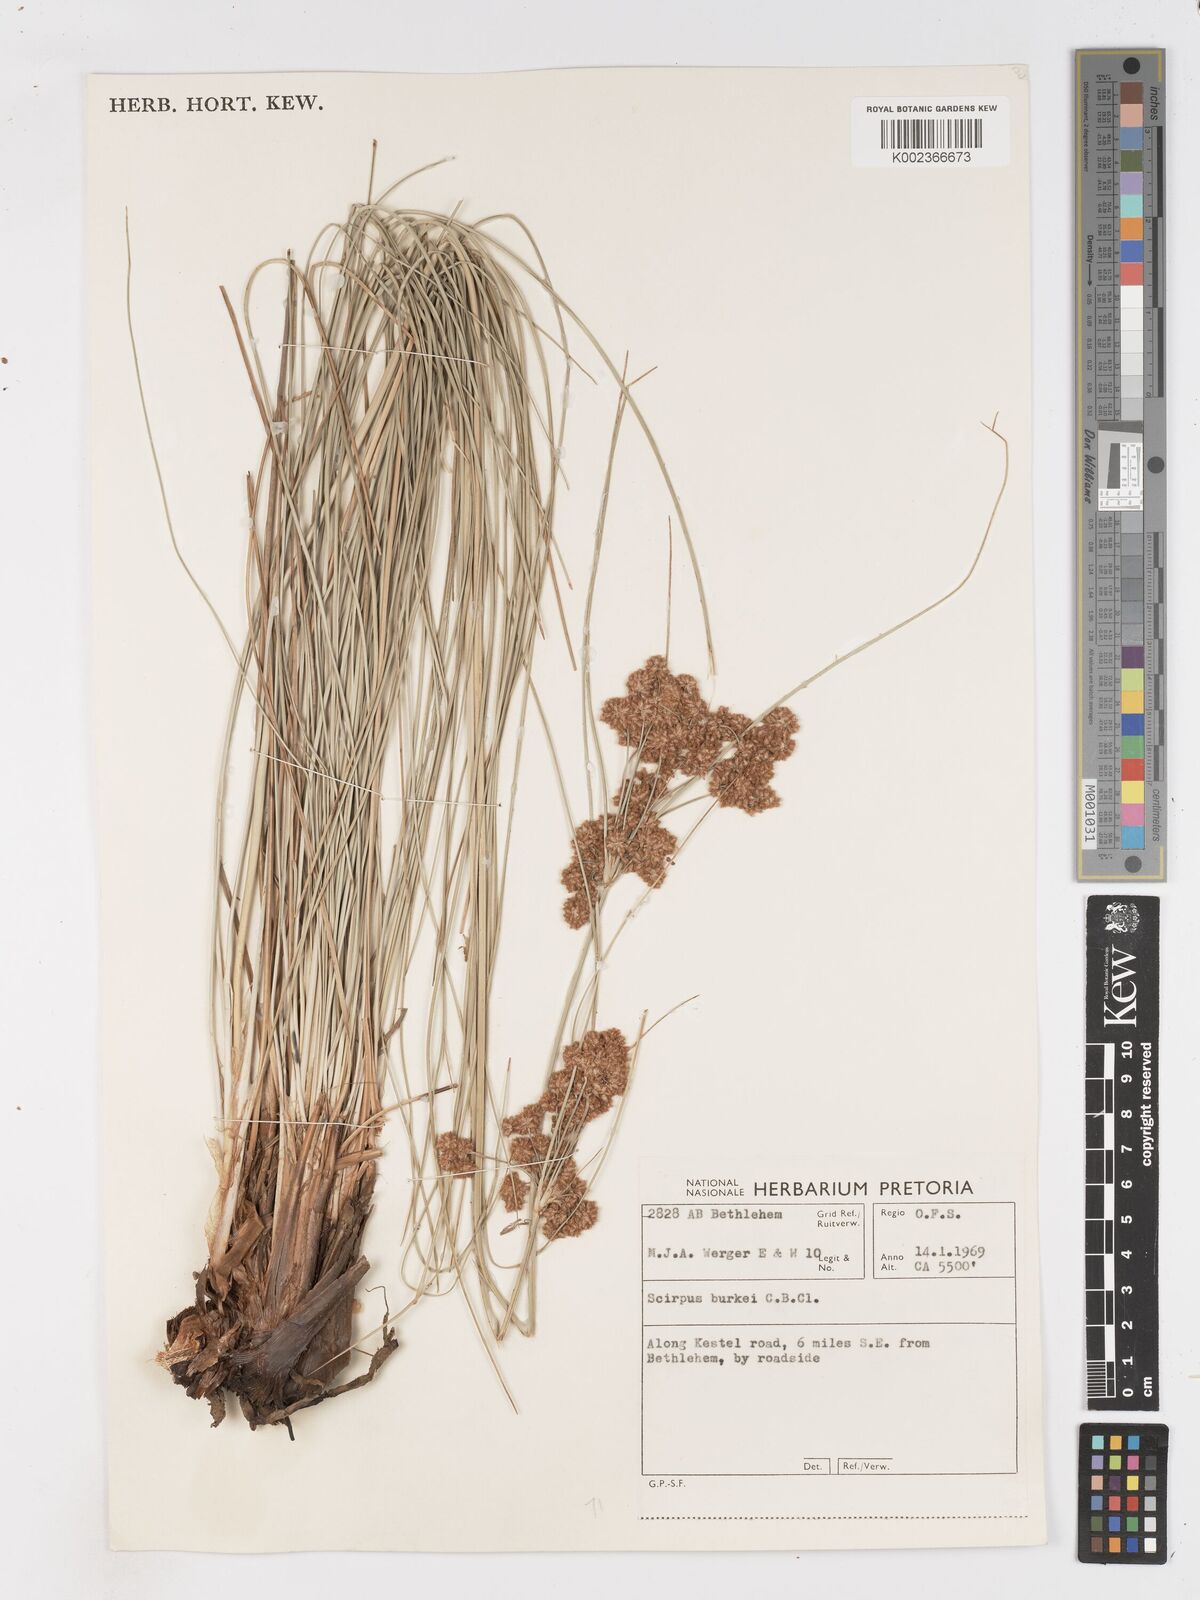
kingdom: Plantae
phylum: Tracheophyta
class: Liliopsida
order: Poales
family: Cyperaceae
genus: Scirpoides
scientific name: Scirpoides burkei
